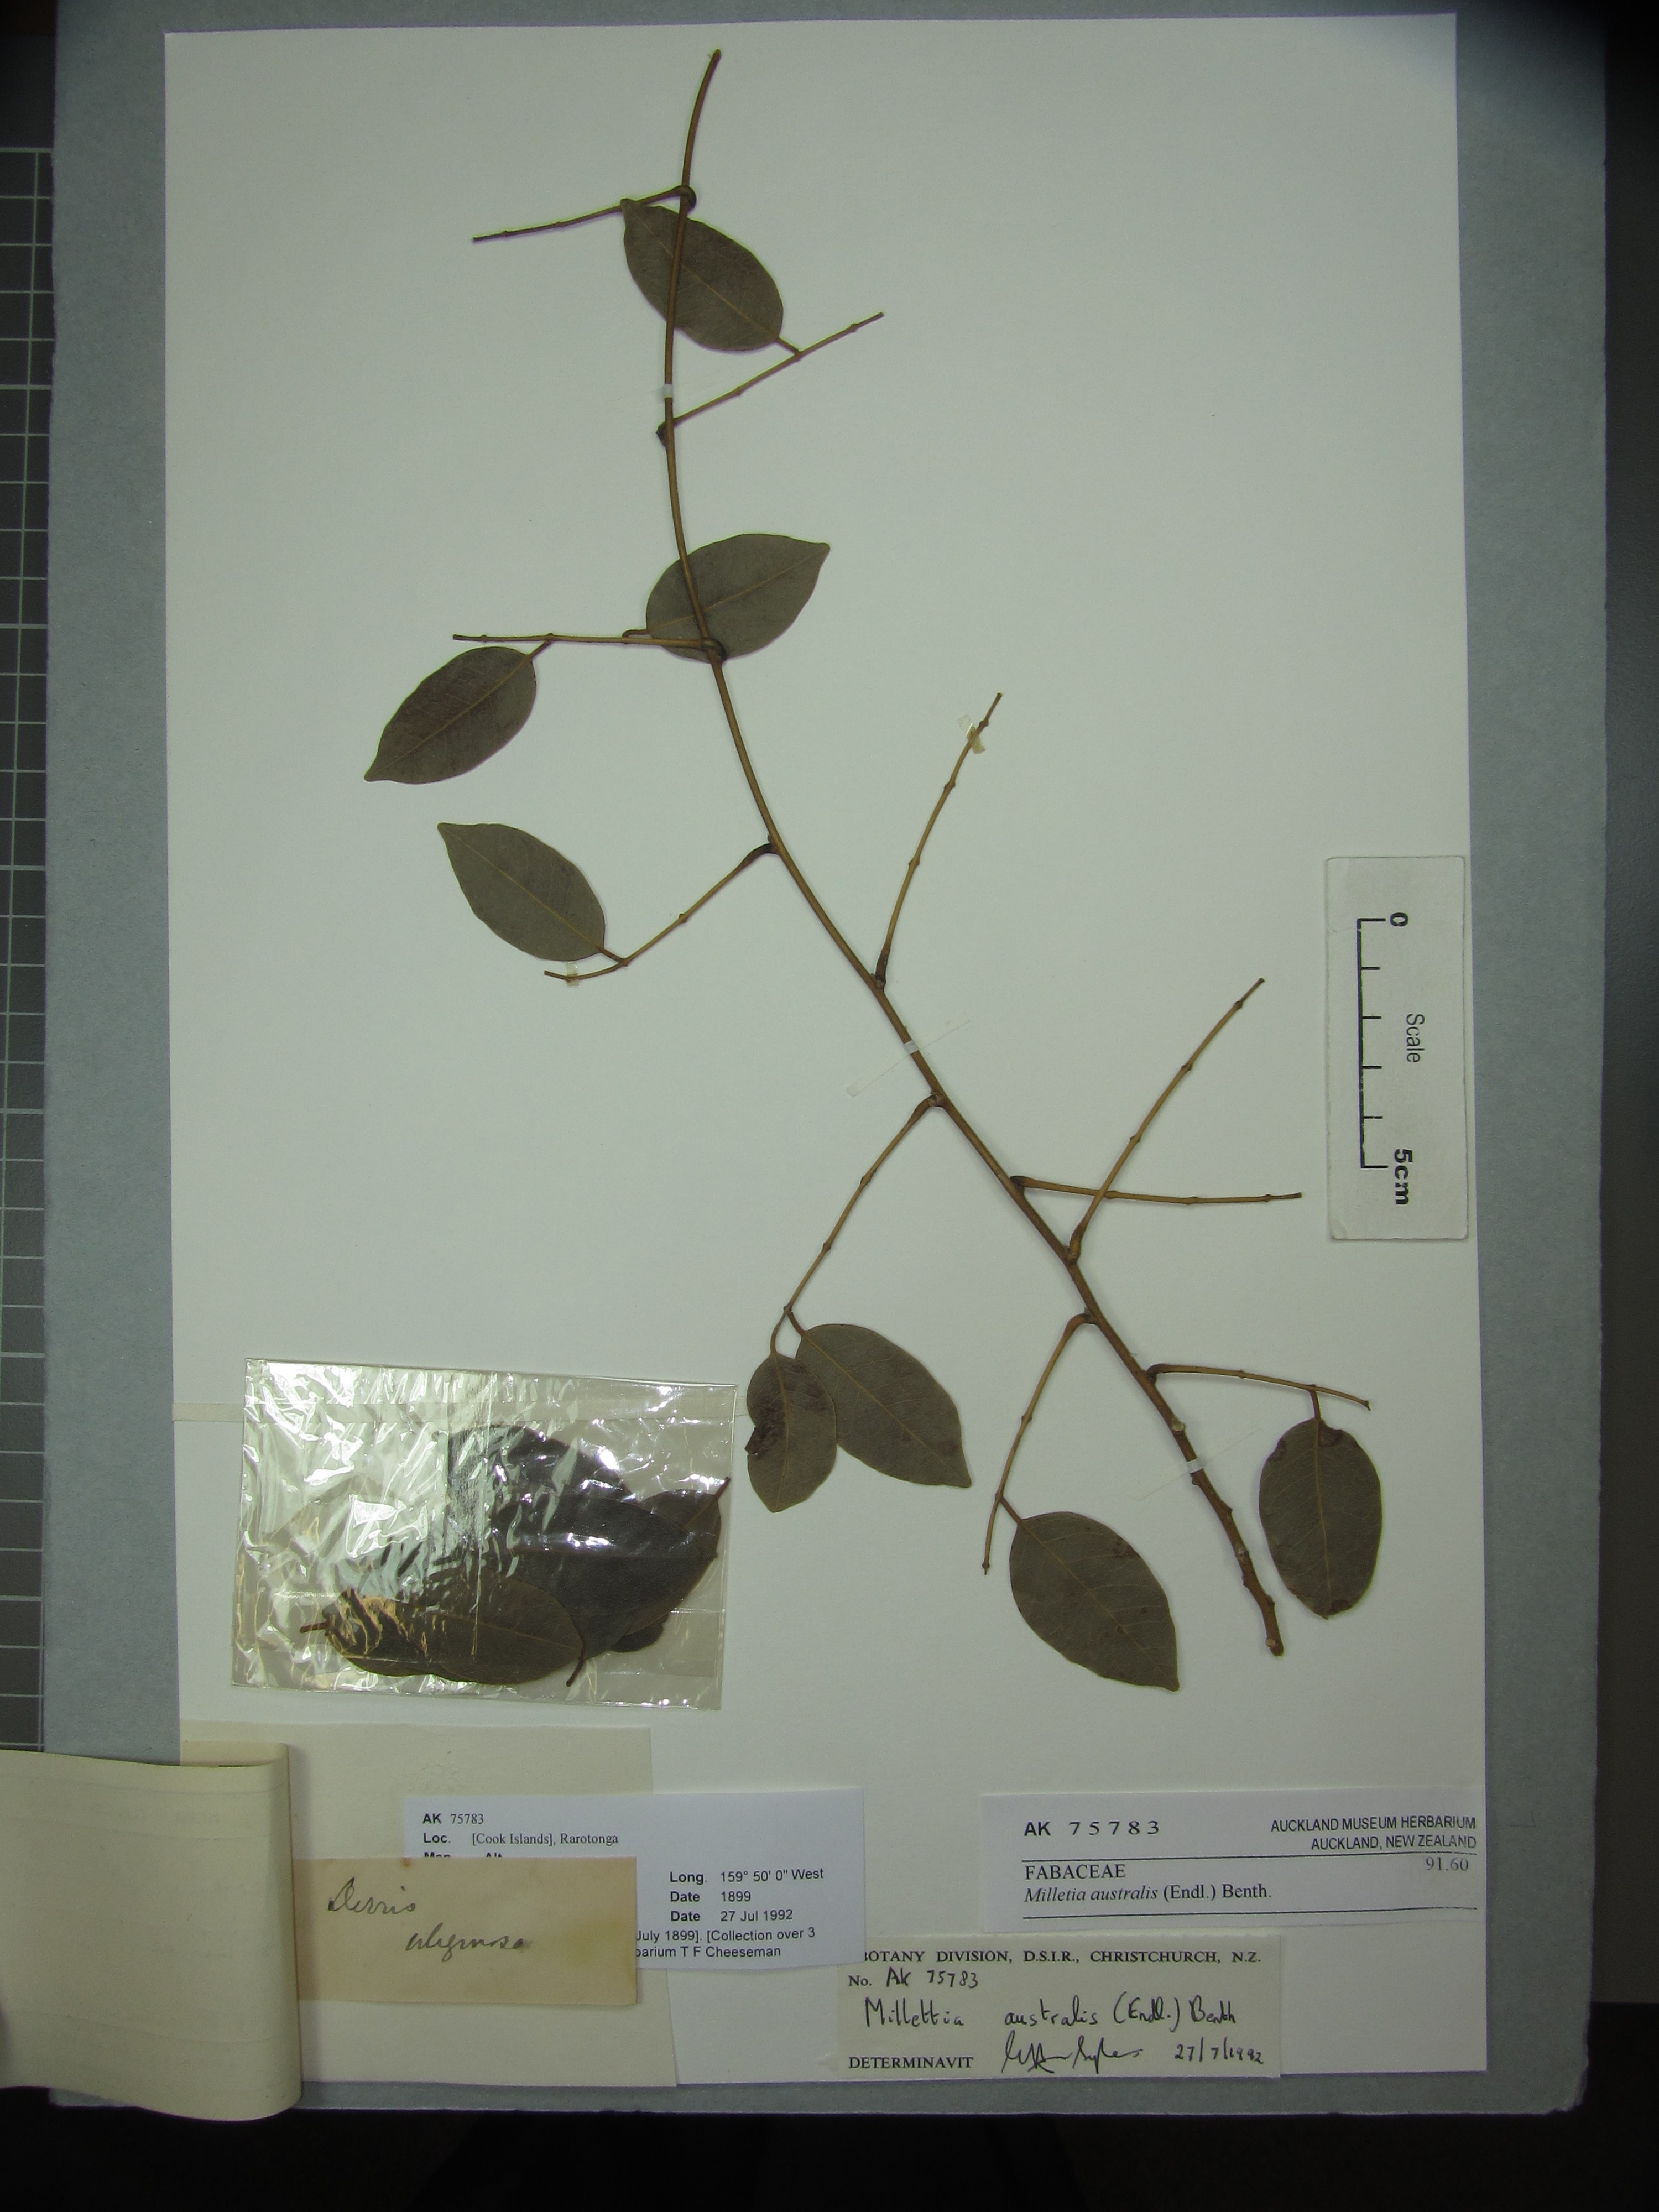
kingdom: Plantae
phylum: Tracheophyta
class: Magnoliopsida
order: Fabales
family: Fabaceae
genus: Austrocallerya
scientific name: Austrocallerya australis
